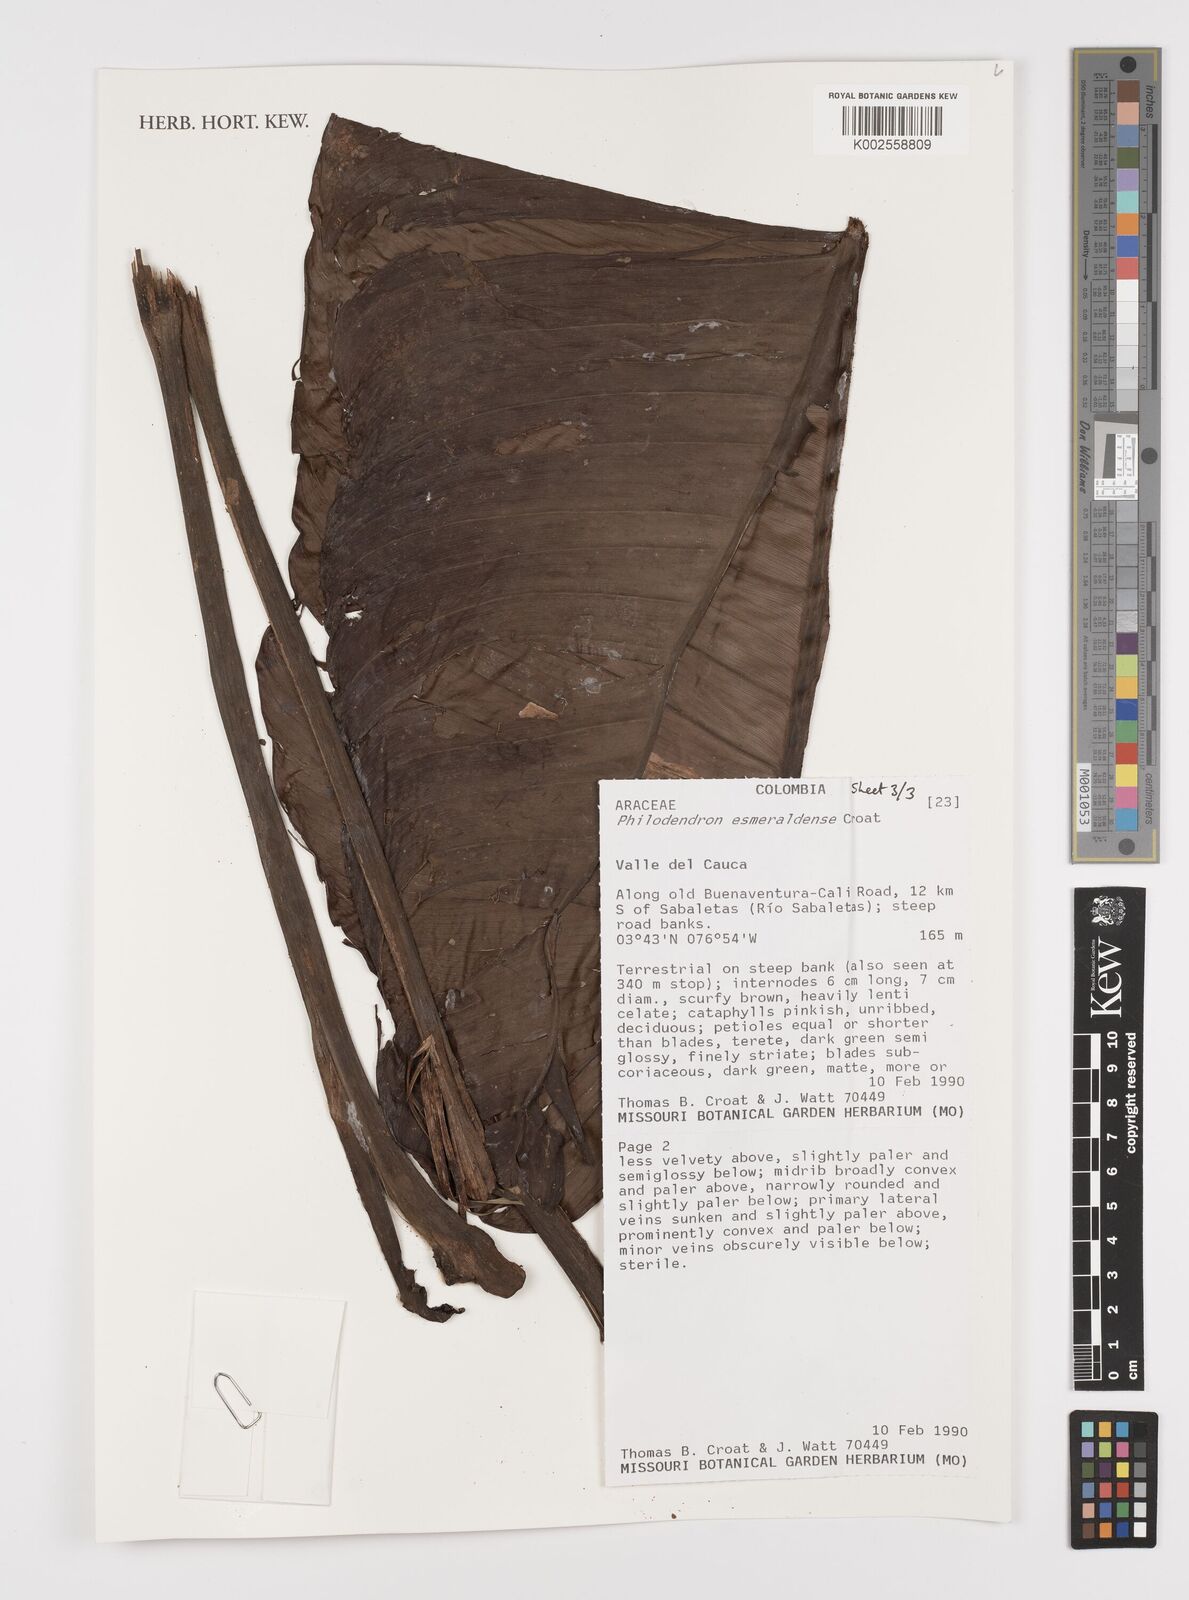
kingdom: Plantae
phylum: Tracheophyta
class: Liliopsida
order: Alismatales
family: Araceae
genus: Philodendron
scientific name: Philodendron esmeraldense
